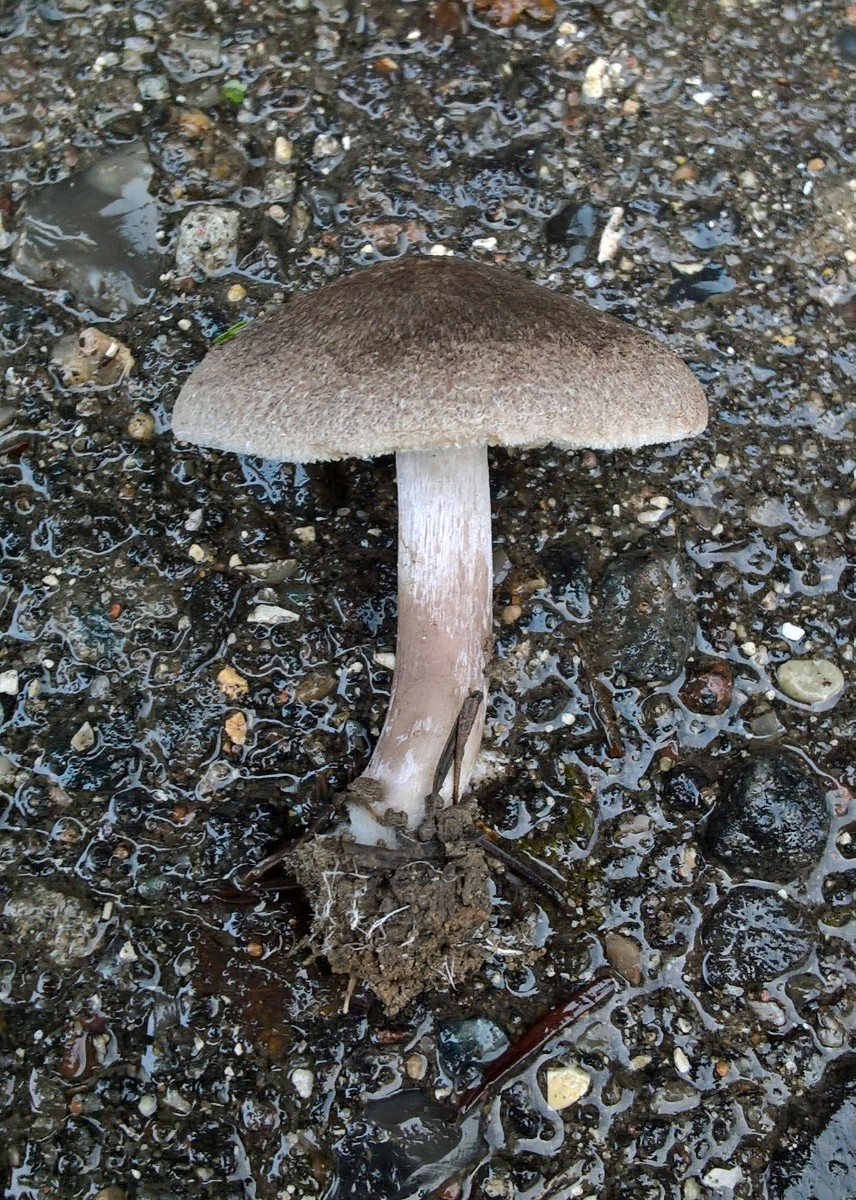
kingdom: Fungi
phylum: Basidiomycota
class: Agaricomycetes
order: Agaricales
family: Tricholomataceae
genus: Tricholoma
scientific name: Tricholoma terreum
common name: jordfarvet ridderhat
